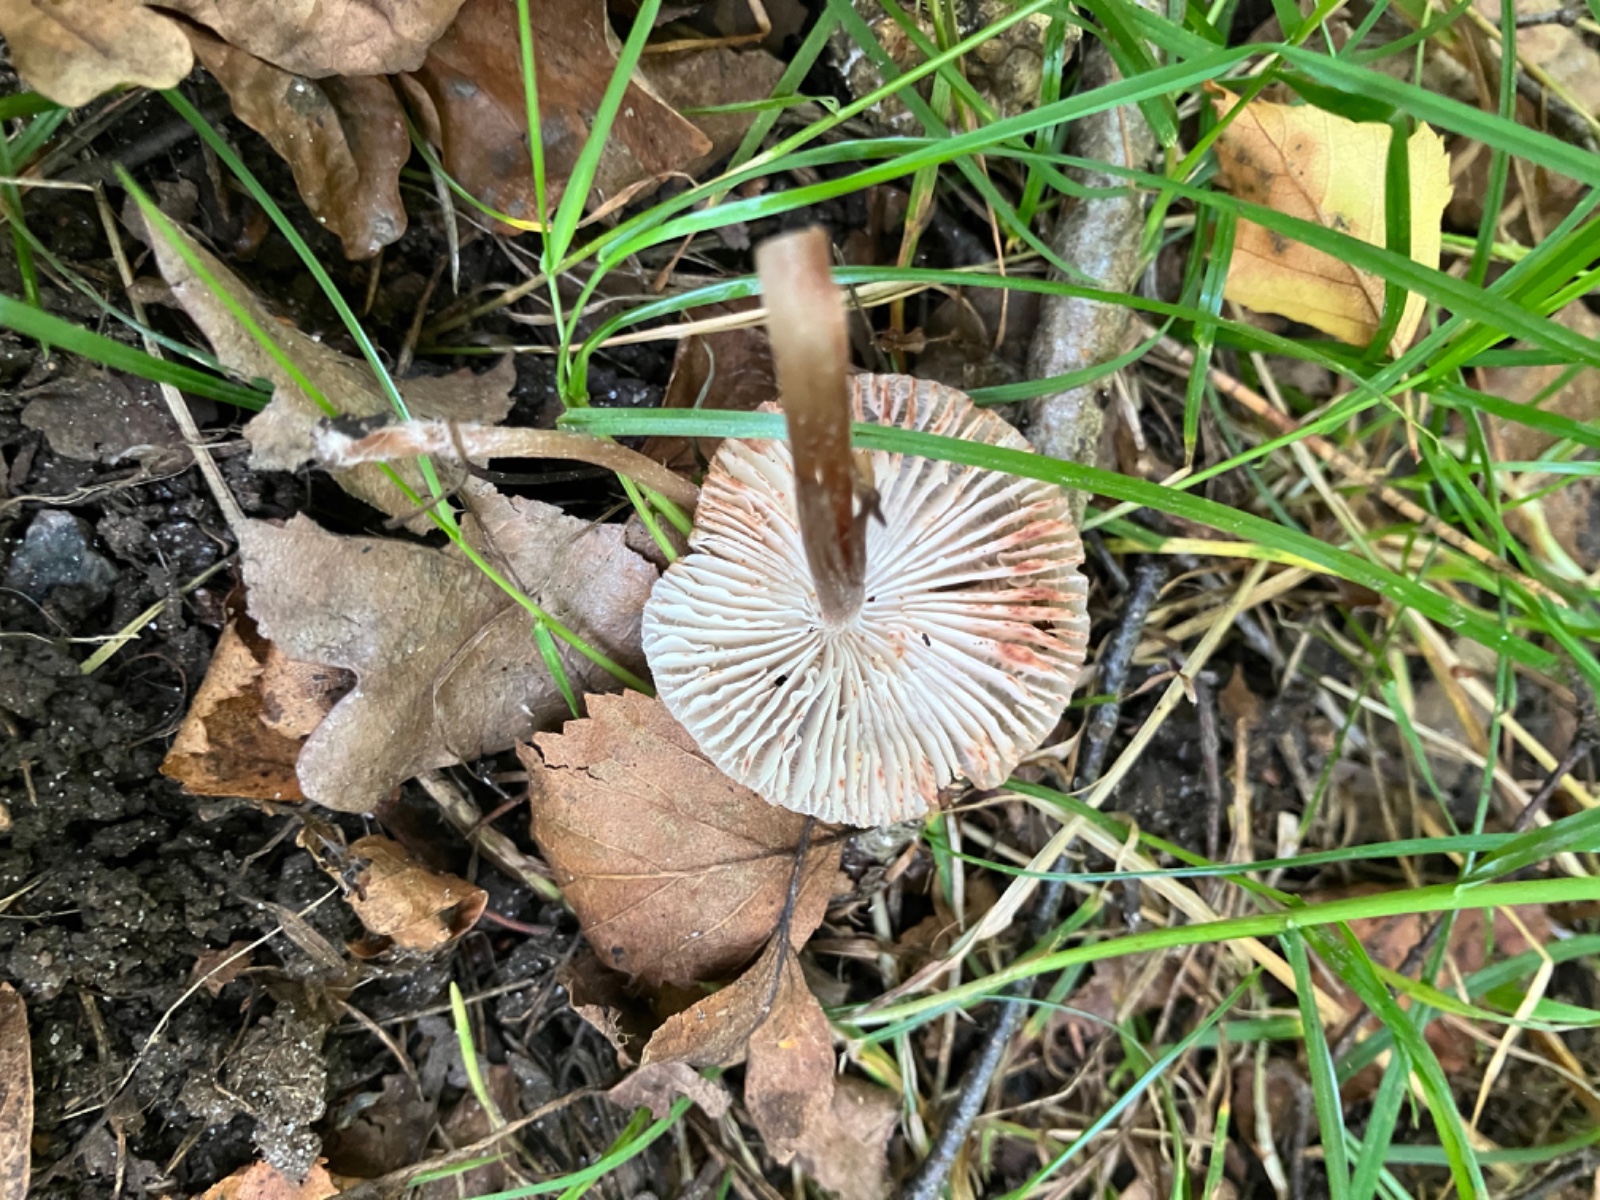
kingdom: Fungi
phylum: Basidiomycota
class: Agaricomycetes
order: Agaricales
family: Mycenaceae
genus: Mycena
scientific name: Mycena zephirus
